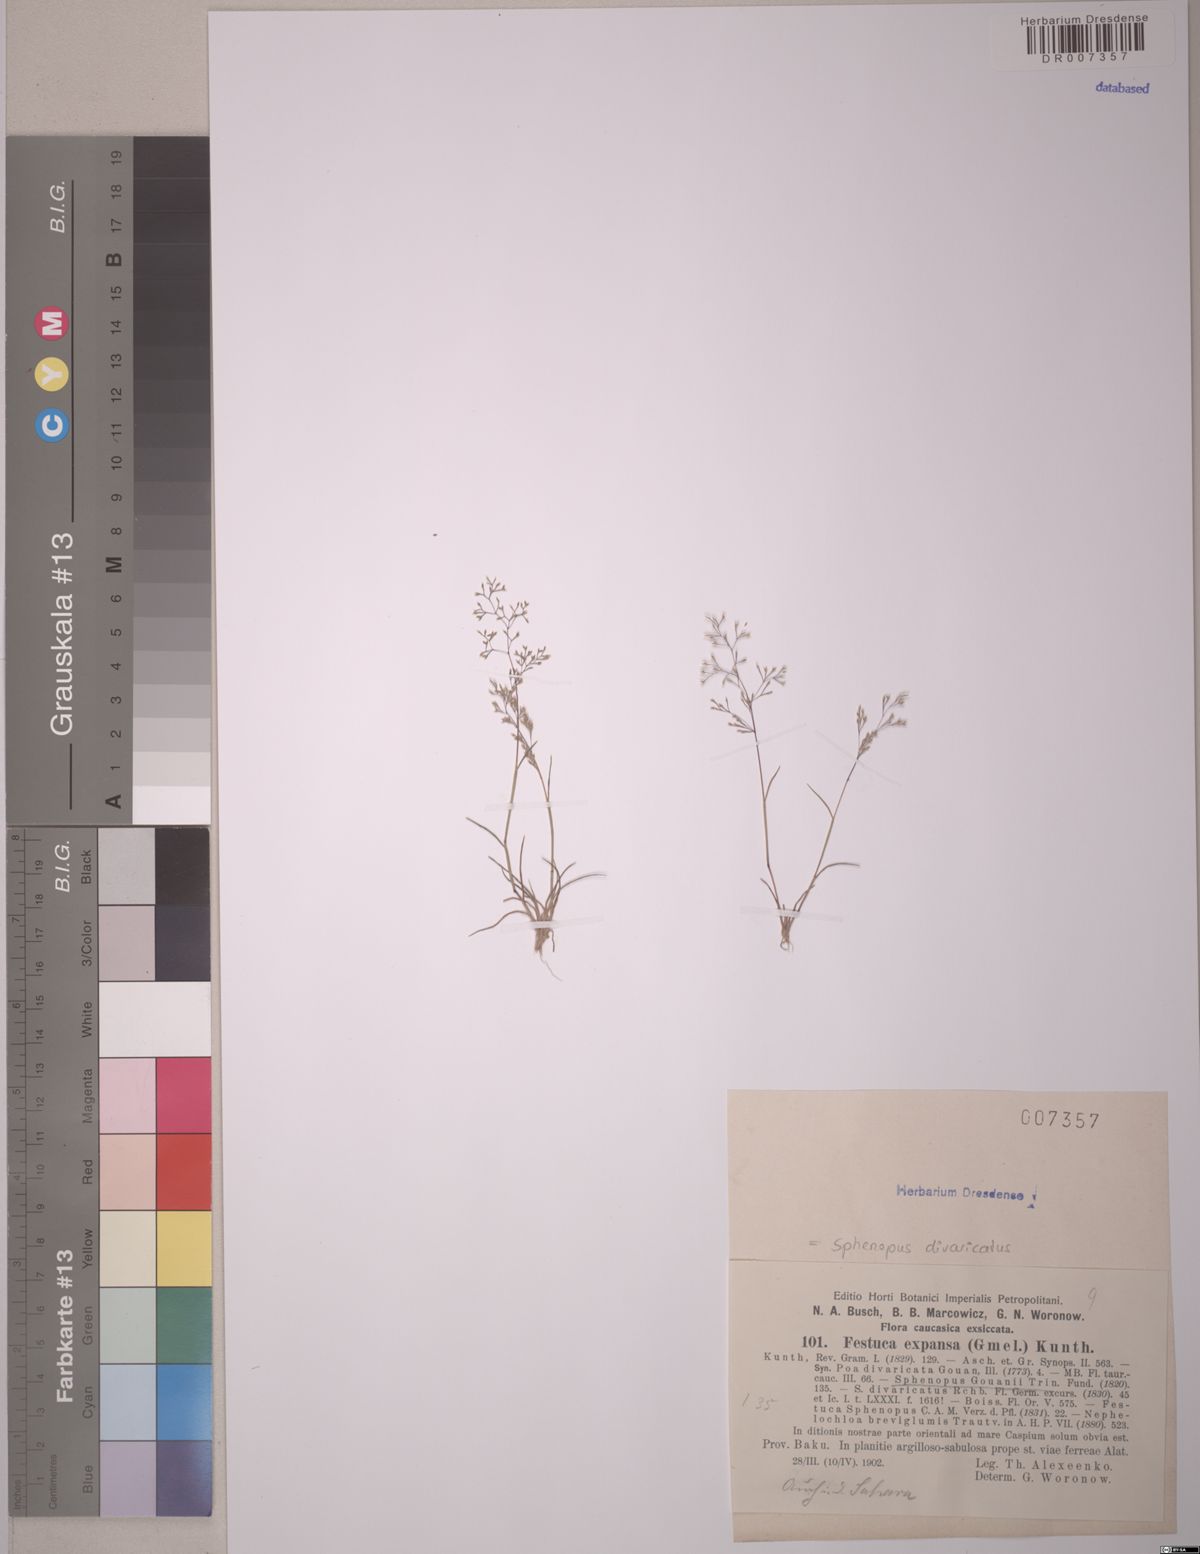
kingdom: Plantae
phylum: Tracheophyta
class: Liliopsida
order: Poales
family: Poaceae
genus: Sphenopus
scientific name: Sphenopus divaricatus
